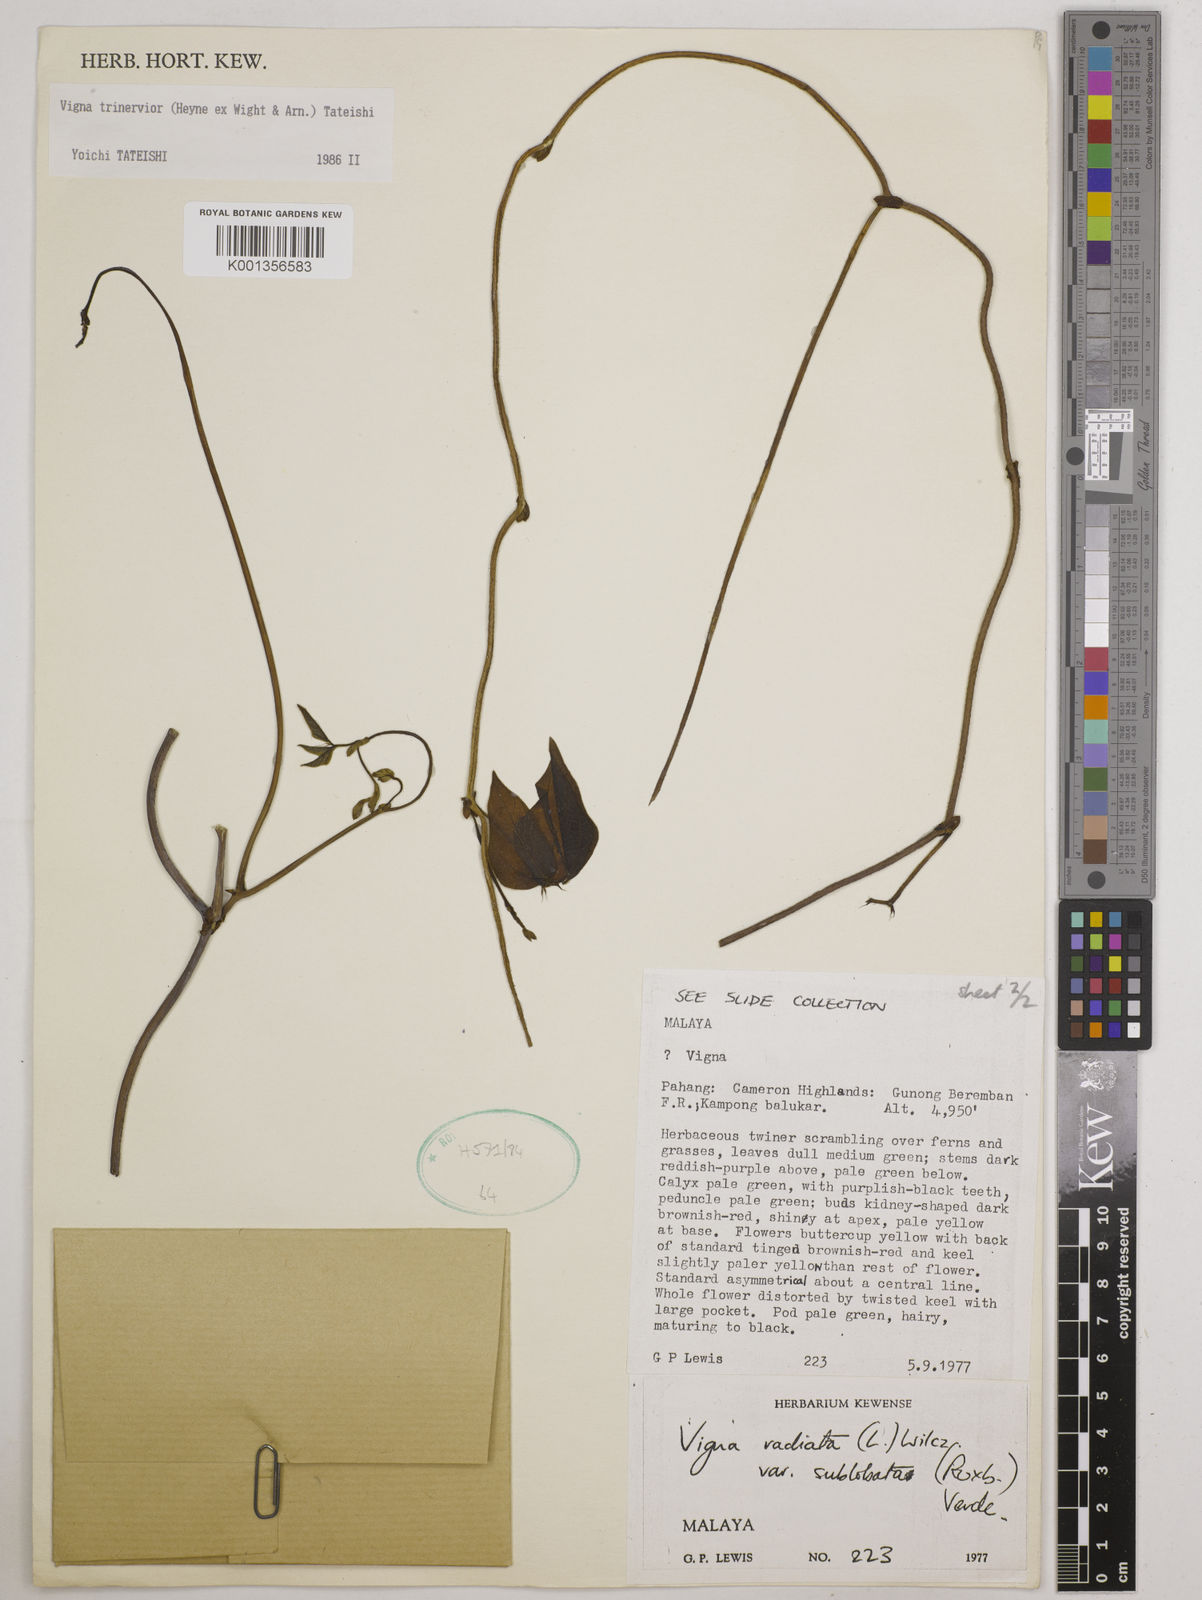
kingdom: Plantae
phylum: Tracheophyta
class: Magnoliopsida
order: Fabales
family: Fabaceae
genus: Vigna
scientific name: Vigna
